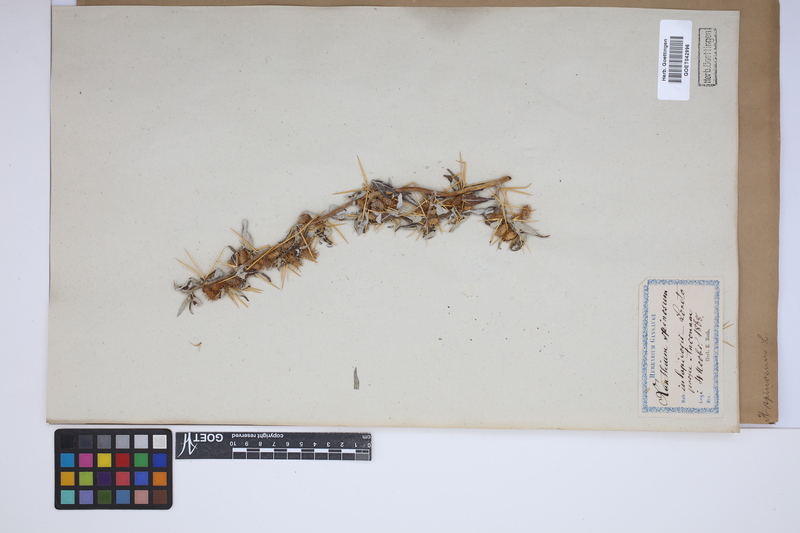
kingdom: Plantae
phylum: Tracheophyta
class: Magnoliopsida
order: Asterales
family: Asteraceae
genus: Xanthium
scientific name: Xanthium spinosum
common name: Spiny cocklebur
